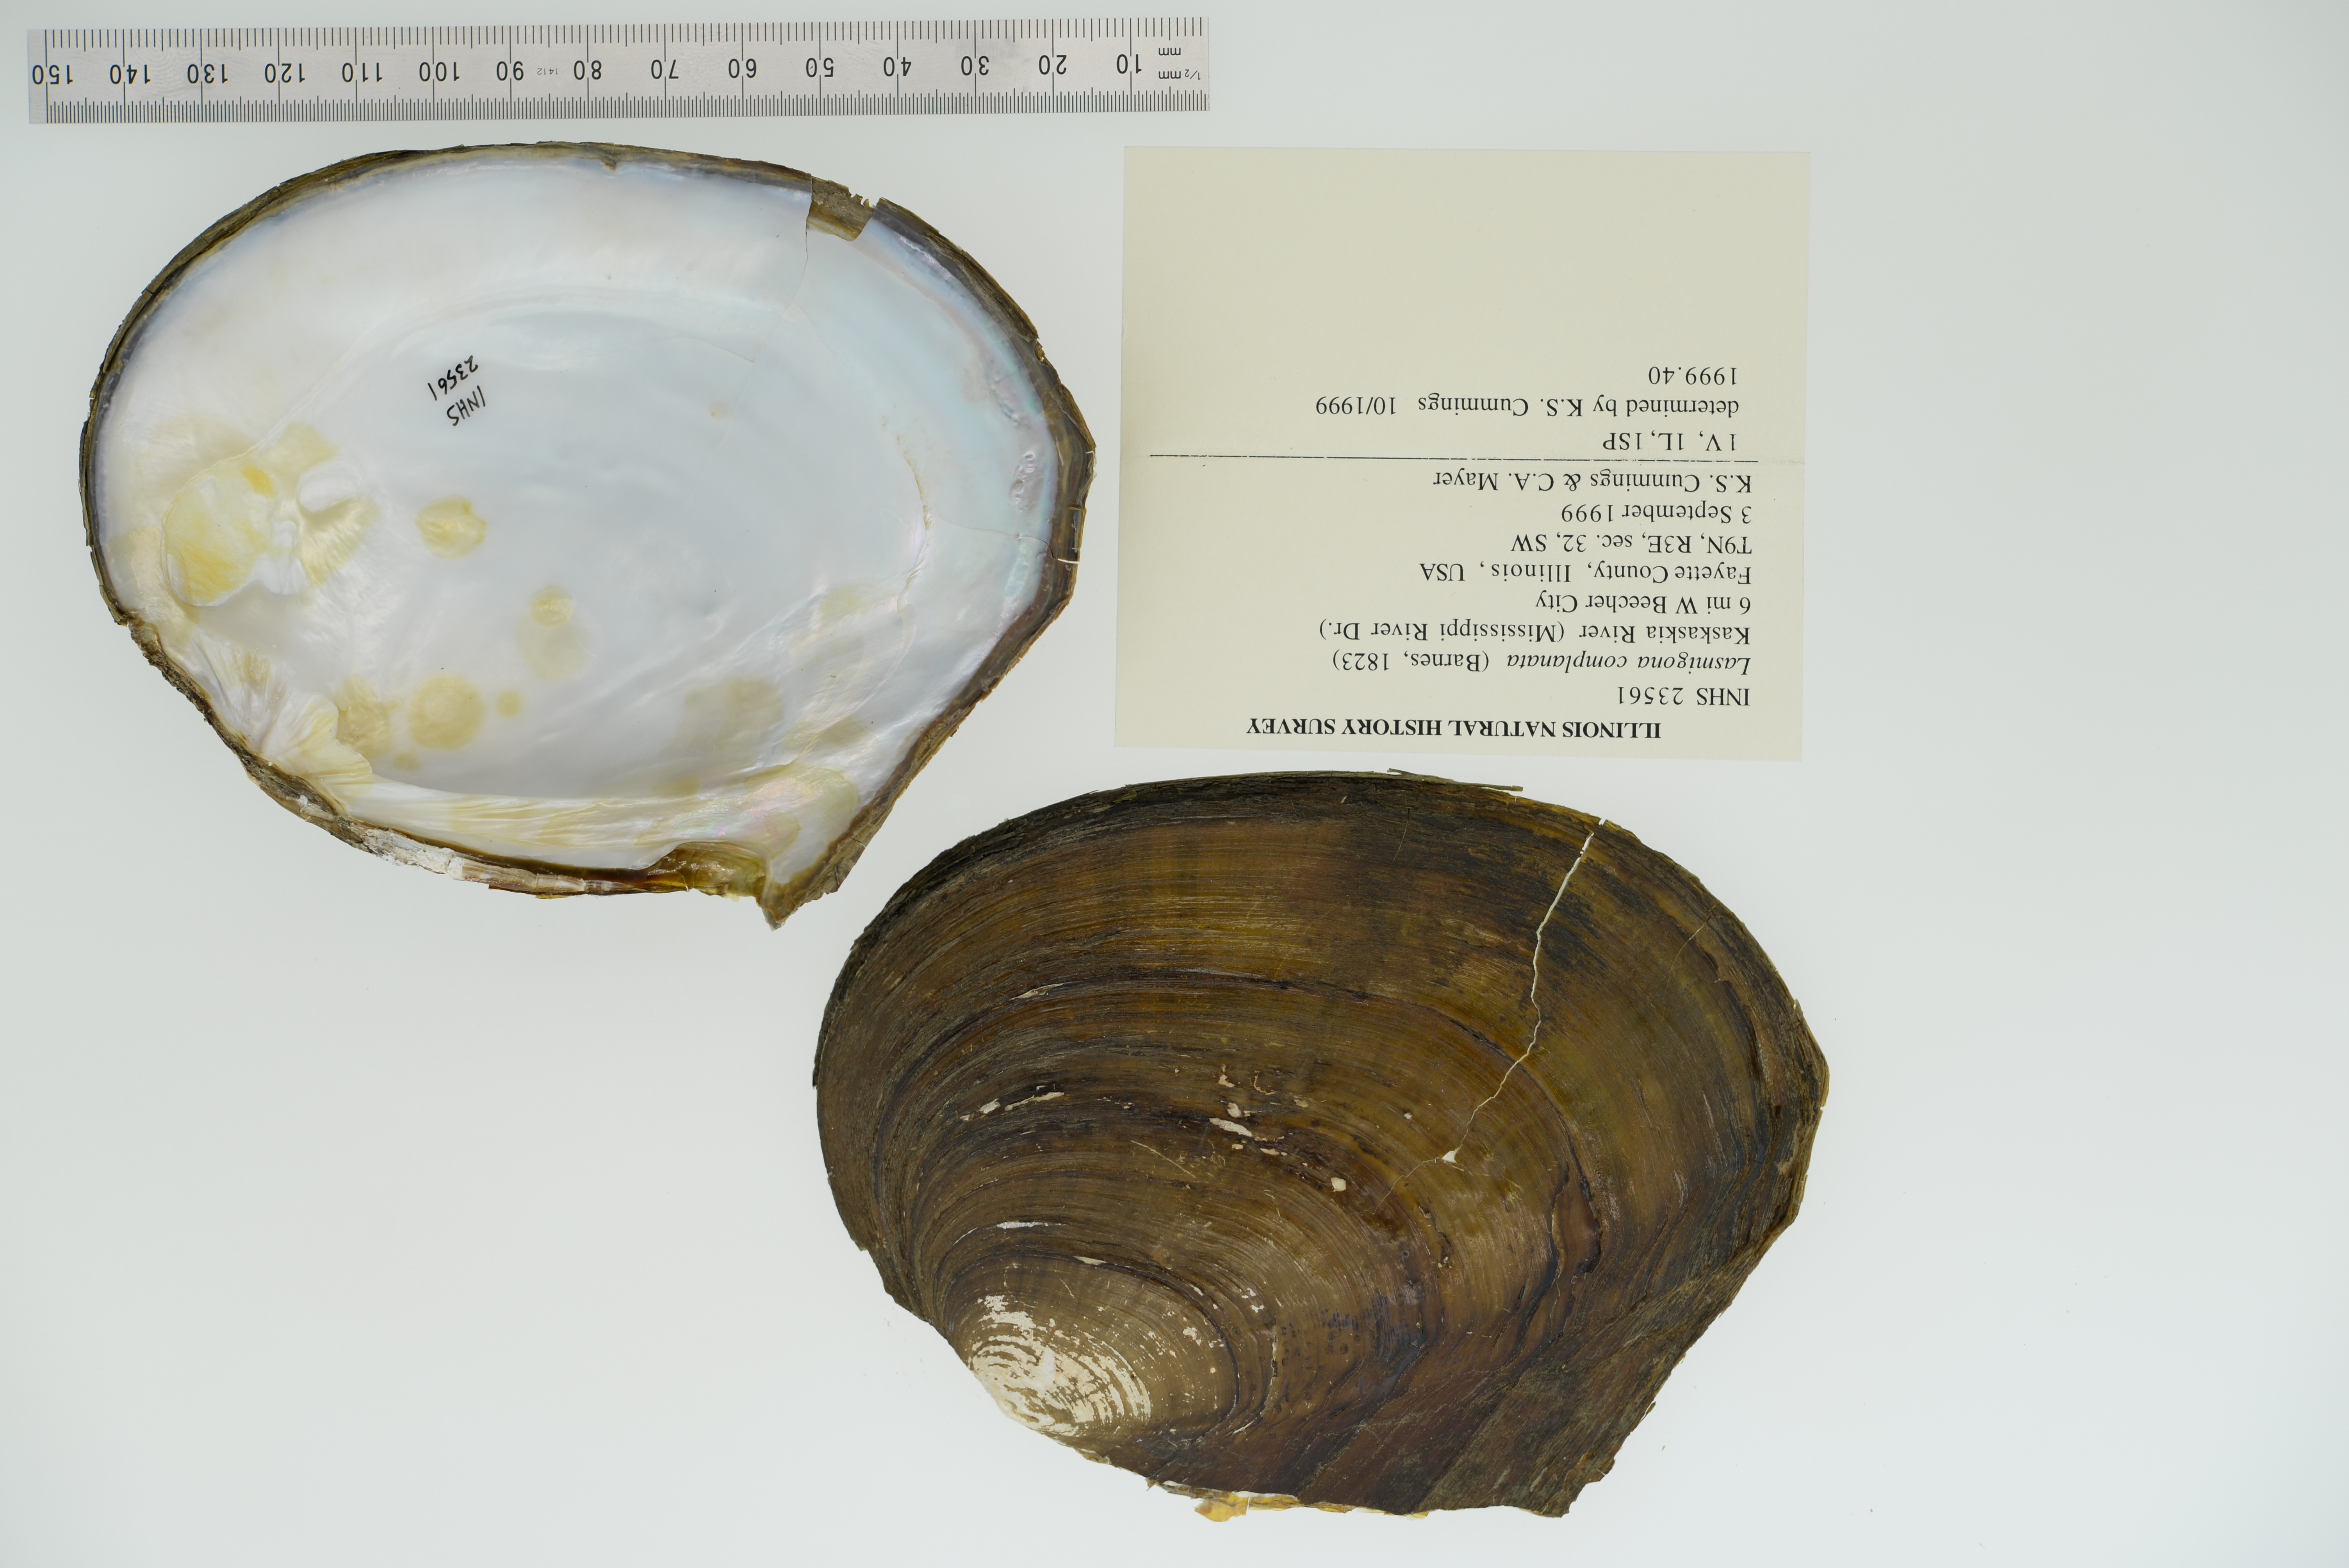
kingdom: Animalia
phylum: Mollusca
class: Bivalvia
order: Unionida
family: Unionidae
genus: Lasmigona
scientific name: Lasmigona complanata
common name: White heelsplitter
